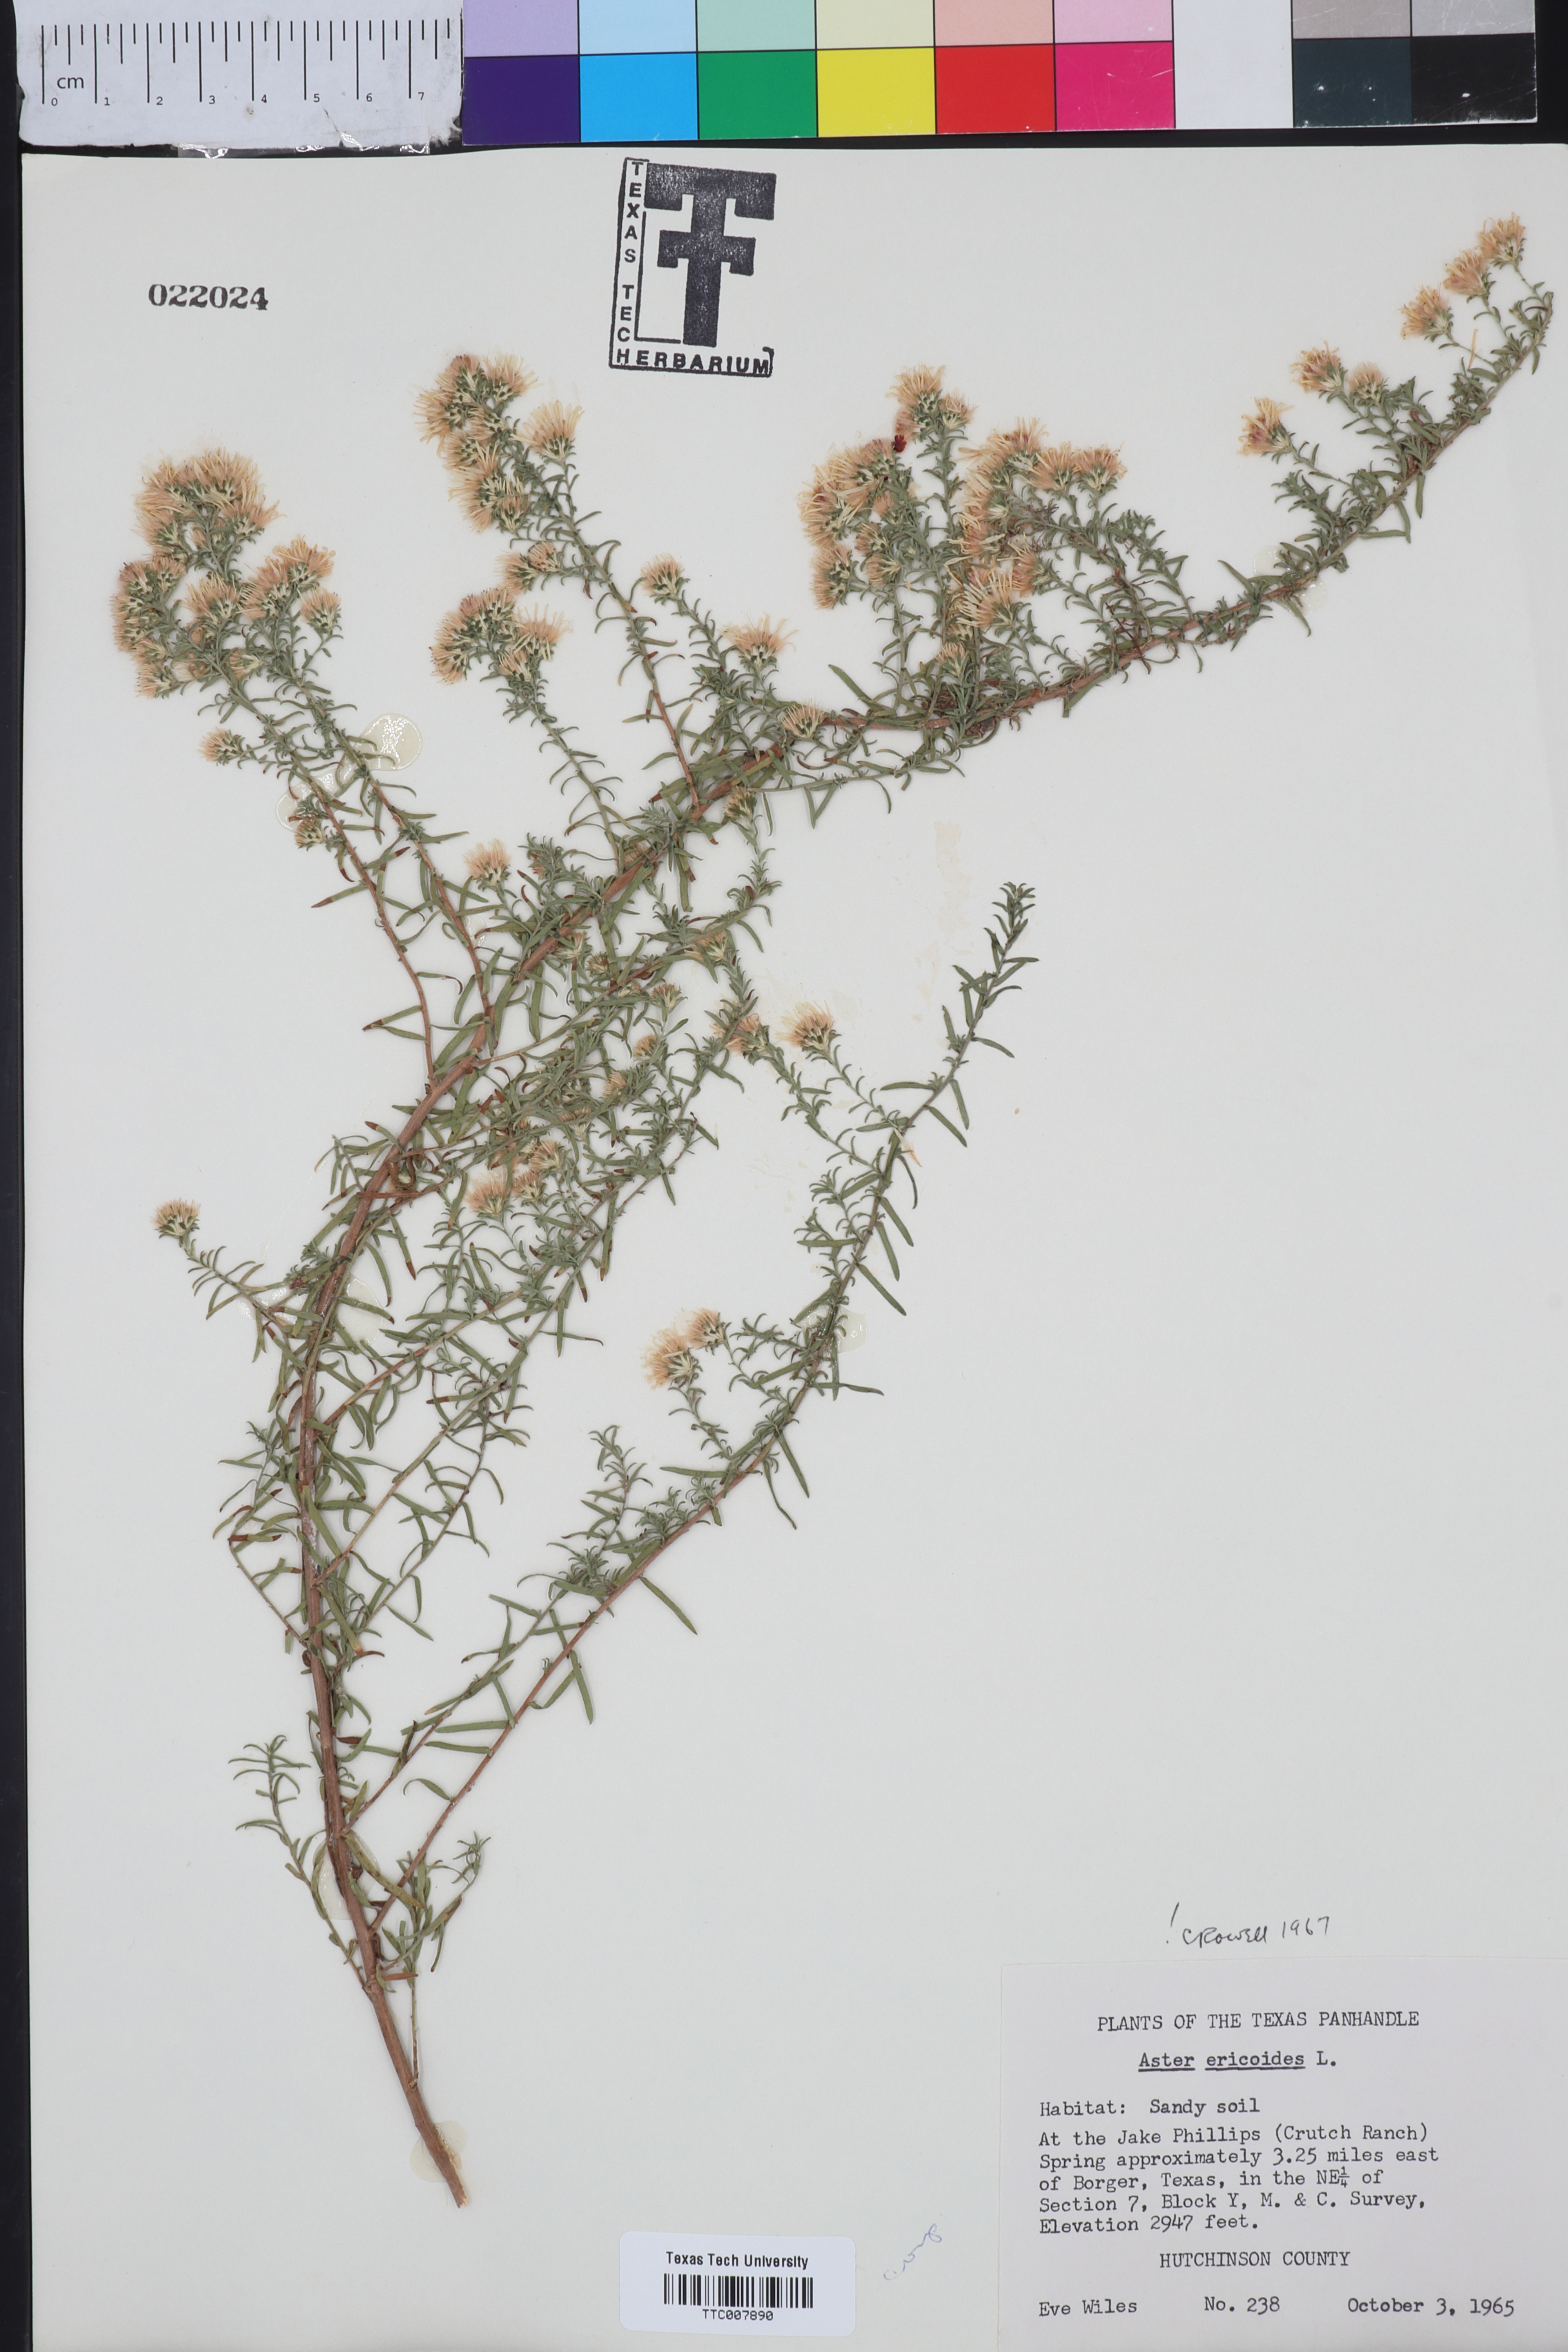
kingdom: Plantae
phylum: Tracheophyta
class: Magnoliopsida
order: Asterales
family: Asteraceae
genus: Symphyotrichum
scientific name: Symphyotrichum ericoides
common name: Heath aster
